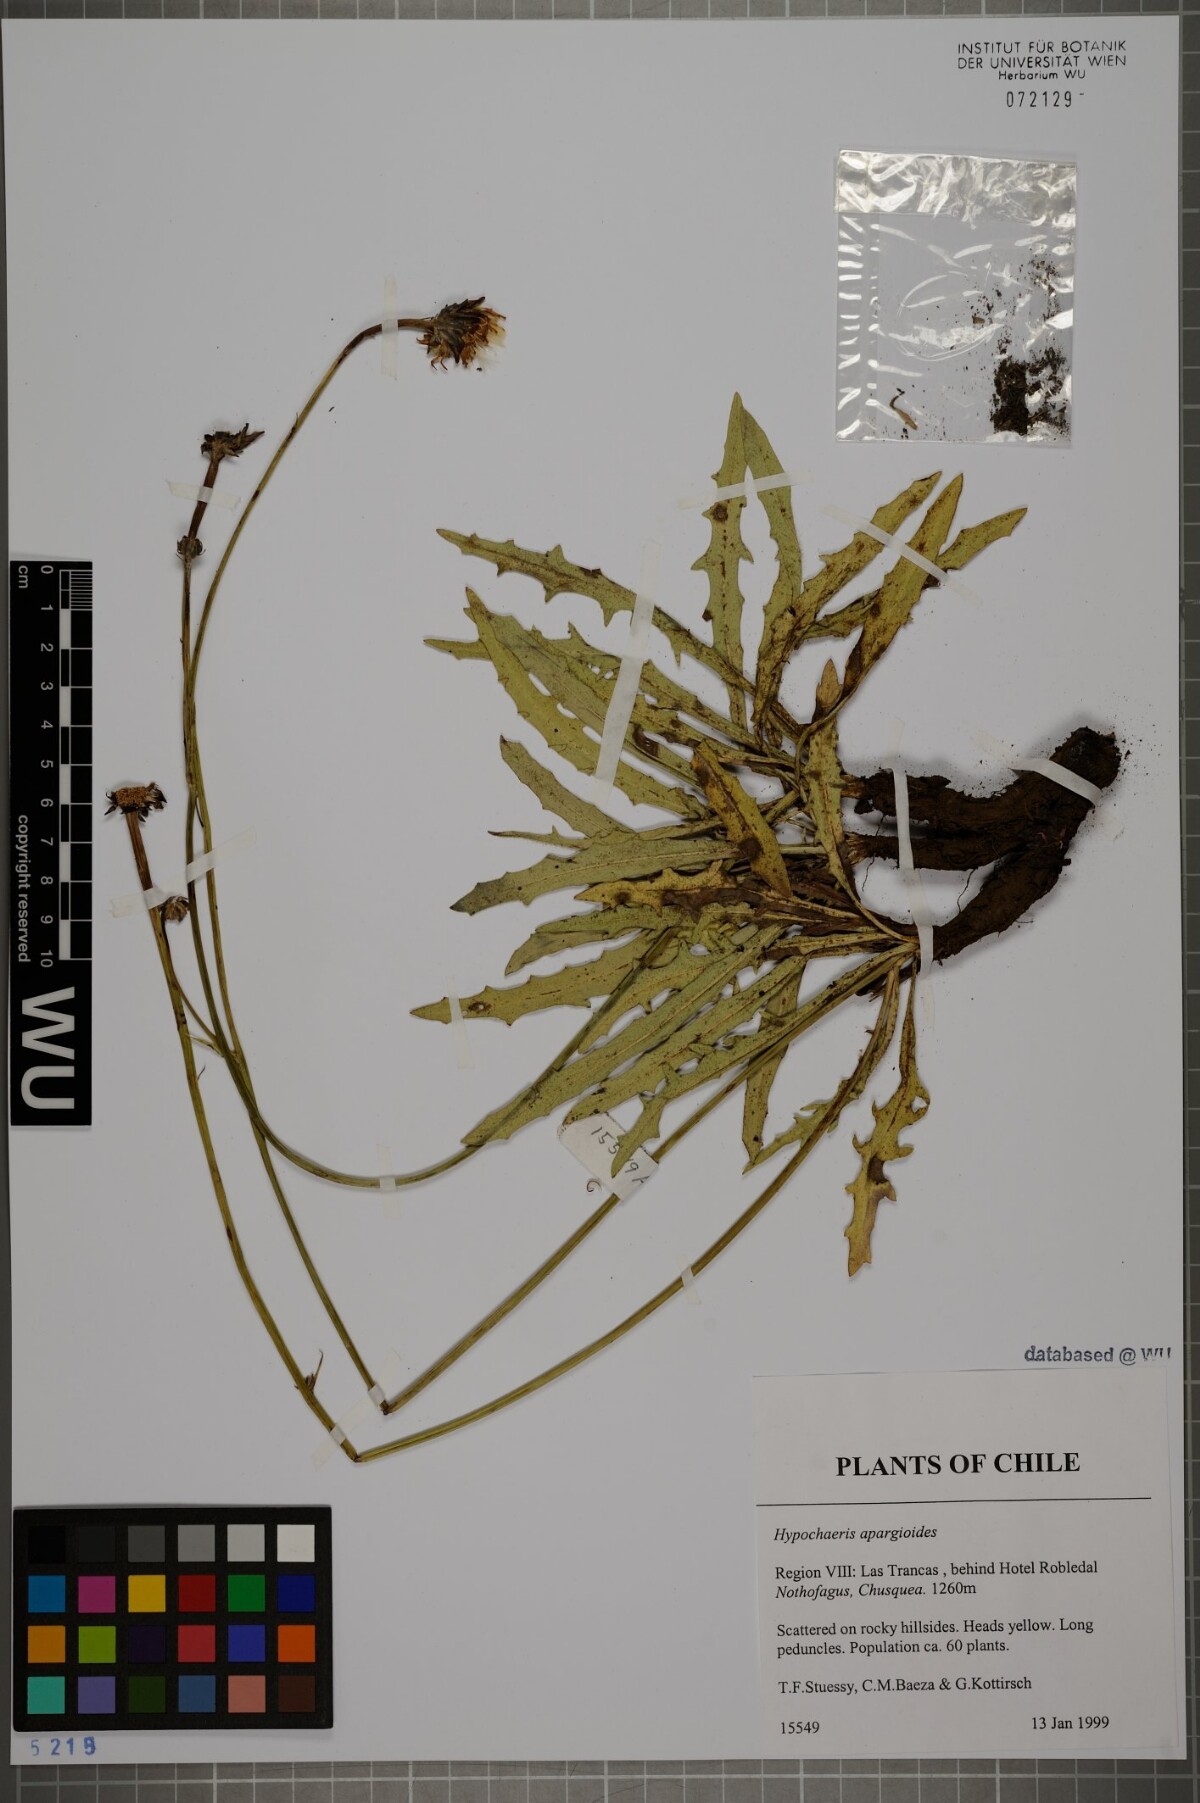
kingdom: Plantae
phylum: Tracheophyta
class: Magnoliopsida
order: Asterales
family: Asteraceae
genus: Hypochaeris
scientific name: Hypochaeris apargioides
